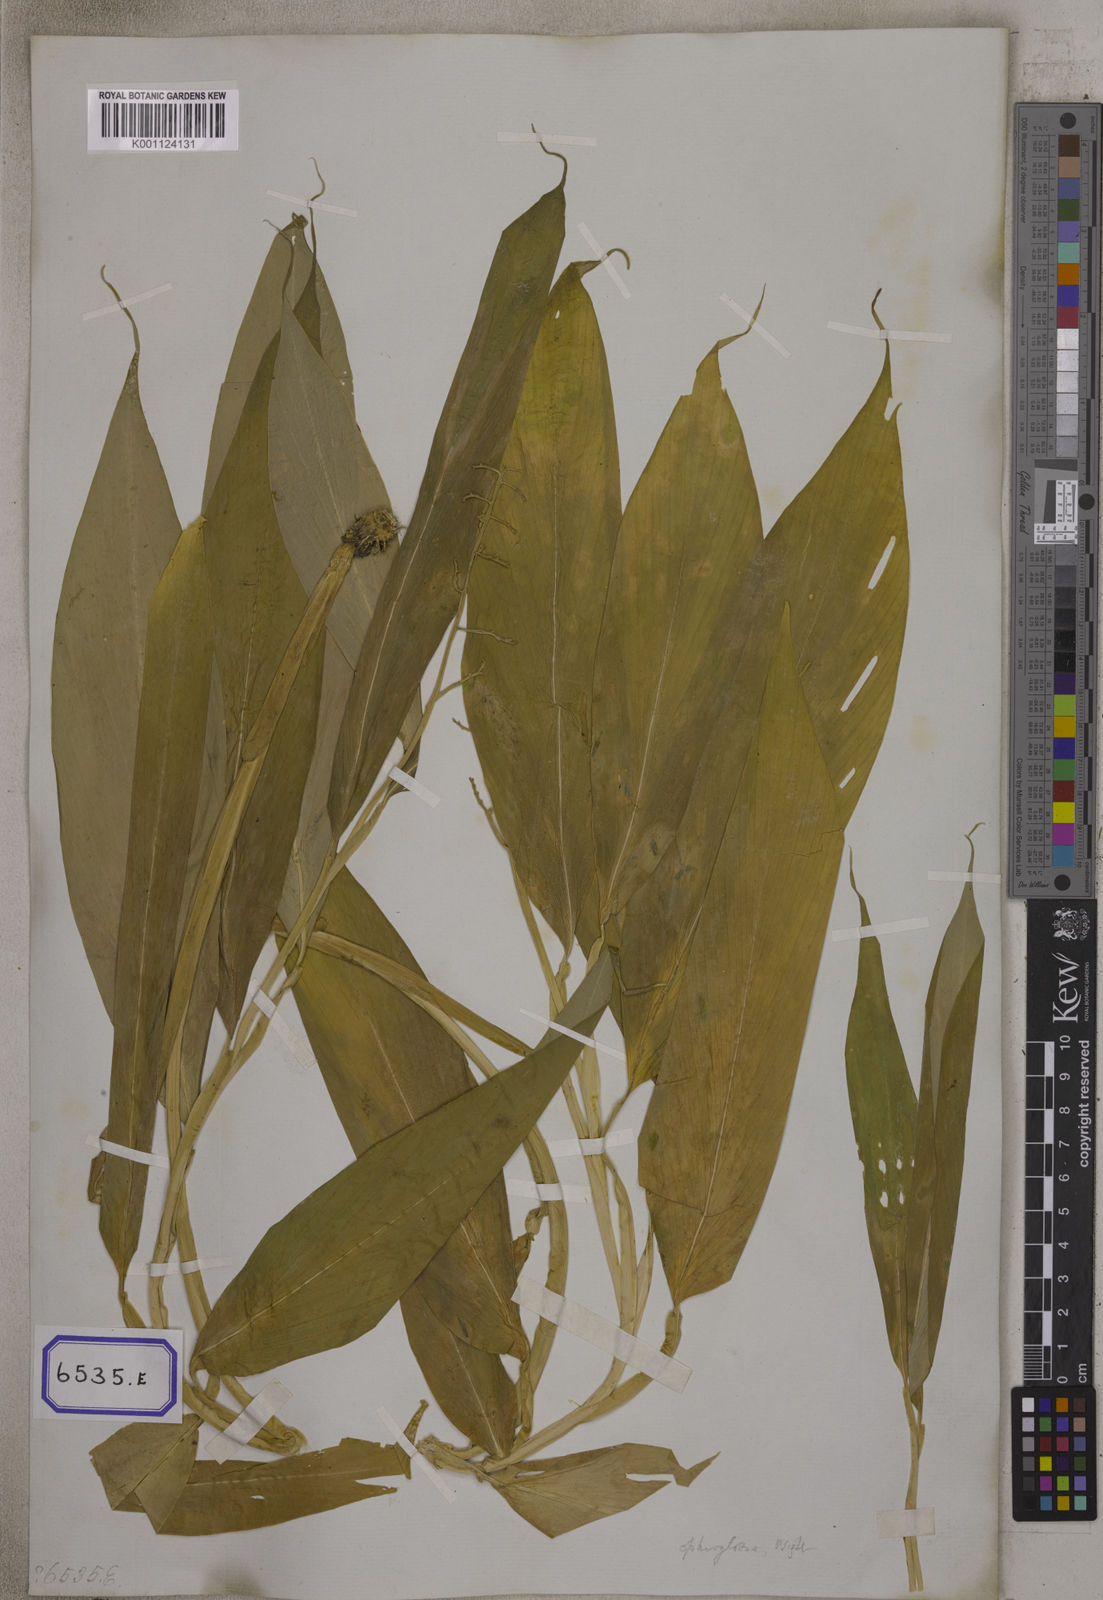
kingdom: Plantae
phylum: Tracheophyta
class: Liliopsida
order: Zingiberales
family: Zingiberaceae
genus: Globba
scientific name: Globba
